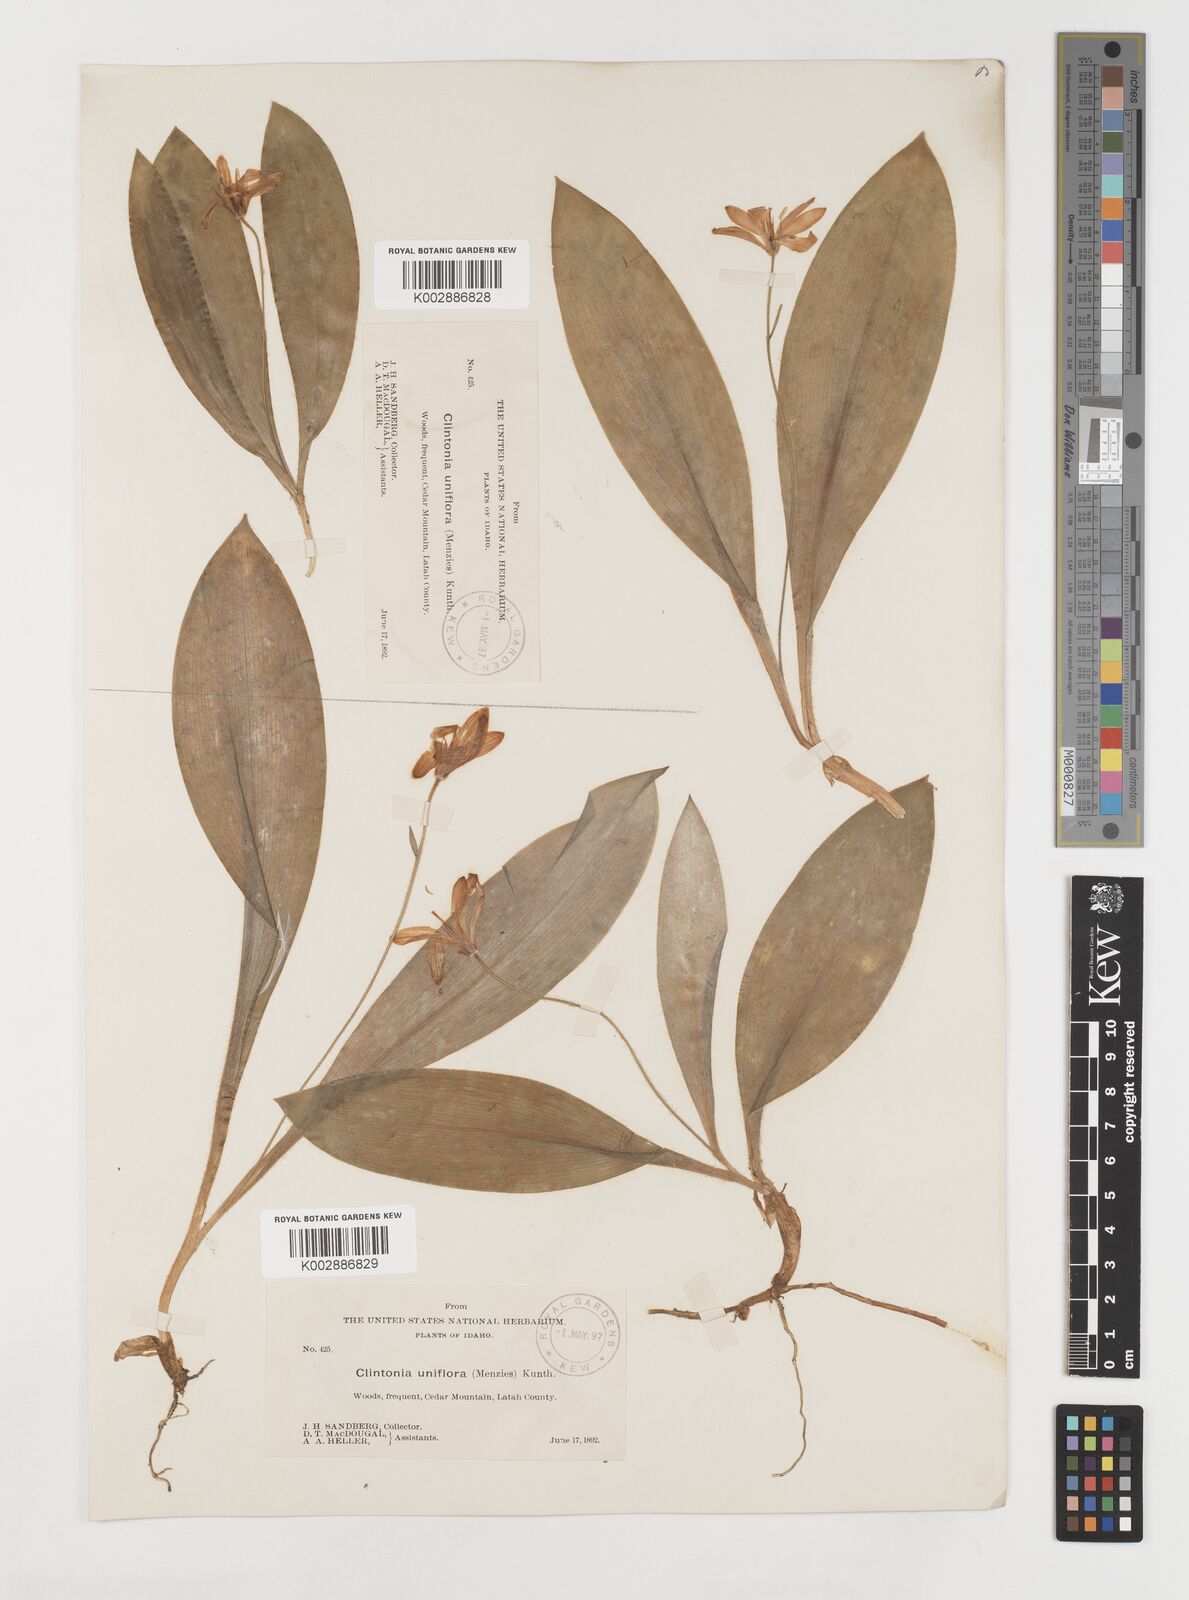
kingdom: Plantae
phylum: Tracheophyta
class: Liliopsida
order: Liliales
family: Liliaceae
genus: Clintonia
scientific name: Clintonia uniflora
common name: Queen's cup
